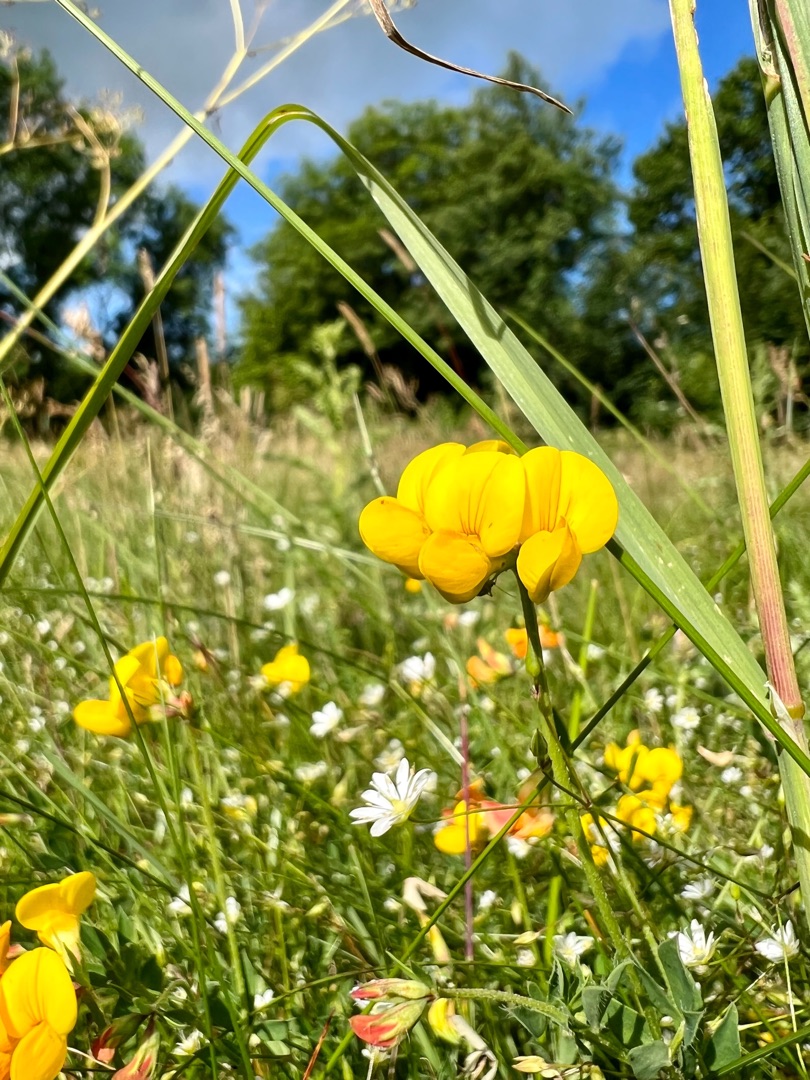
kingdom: Plantae
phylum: Tracheophyta
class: Magnoliopsida
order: Fabales
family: Fabaceae
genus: Lotus
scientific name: Lotus corniculatus
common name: Almindelig kællingetand
